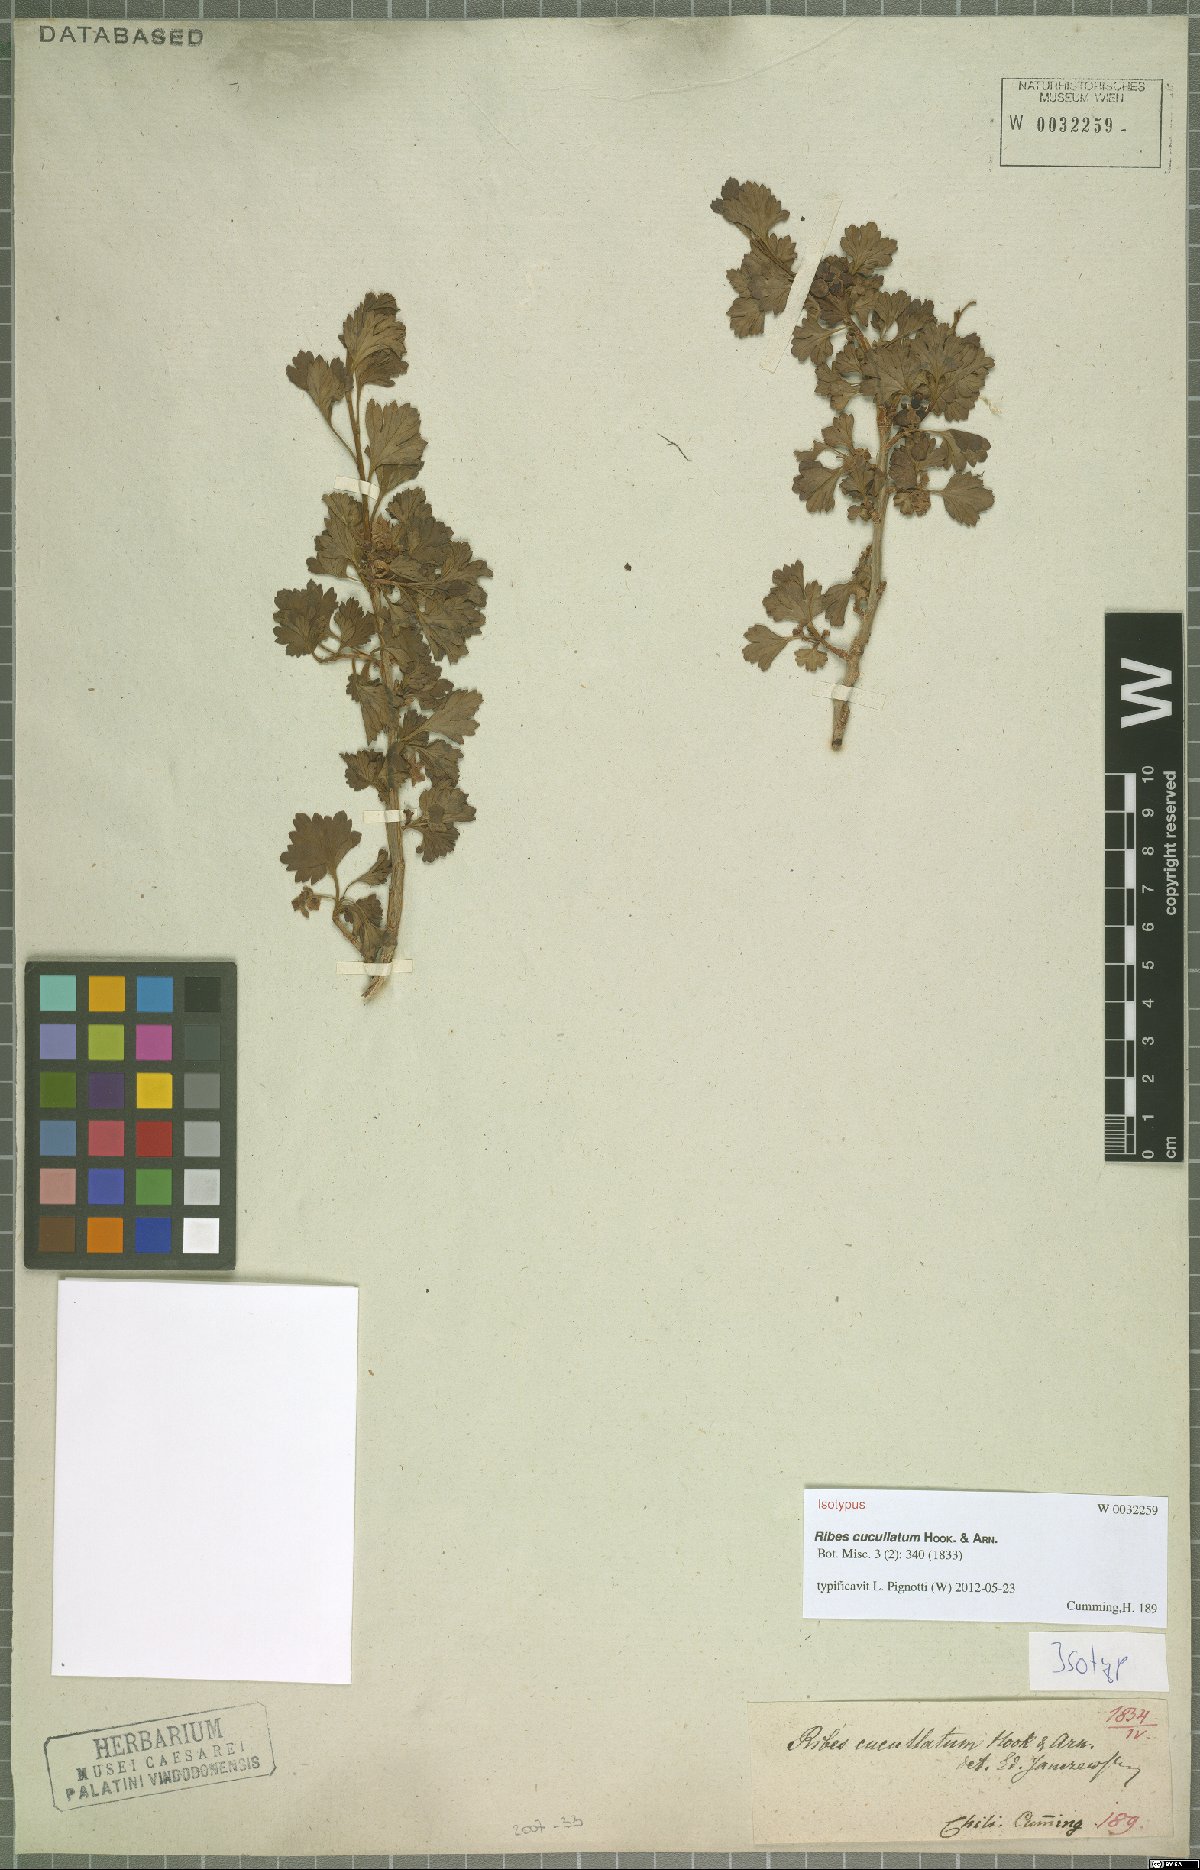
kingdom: Plantae
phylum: Tracheophyta
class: Magnoliopsida
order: Saxifragales
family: Grossulariaceae
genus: Ribes
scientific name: Ribes cucullatum
